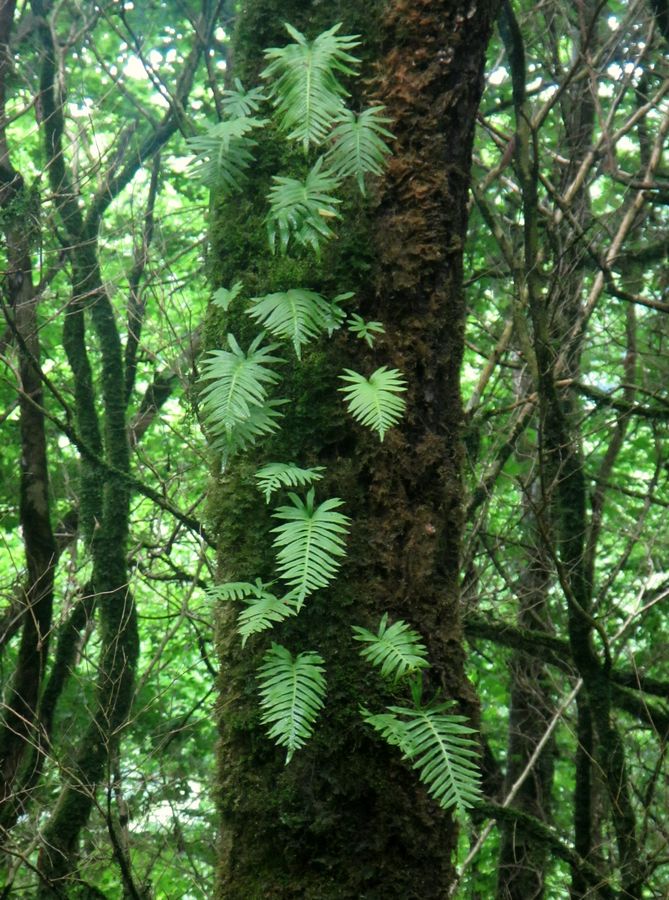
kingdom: Plantae
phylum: Tracheophyta
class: Polypodiopsida
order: Polypodiales
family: Polypodiaceae
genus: Polypodium
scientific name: Polypodium vulgare
